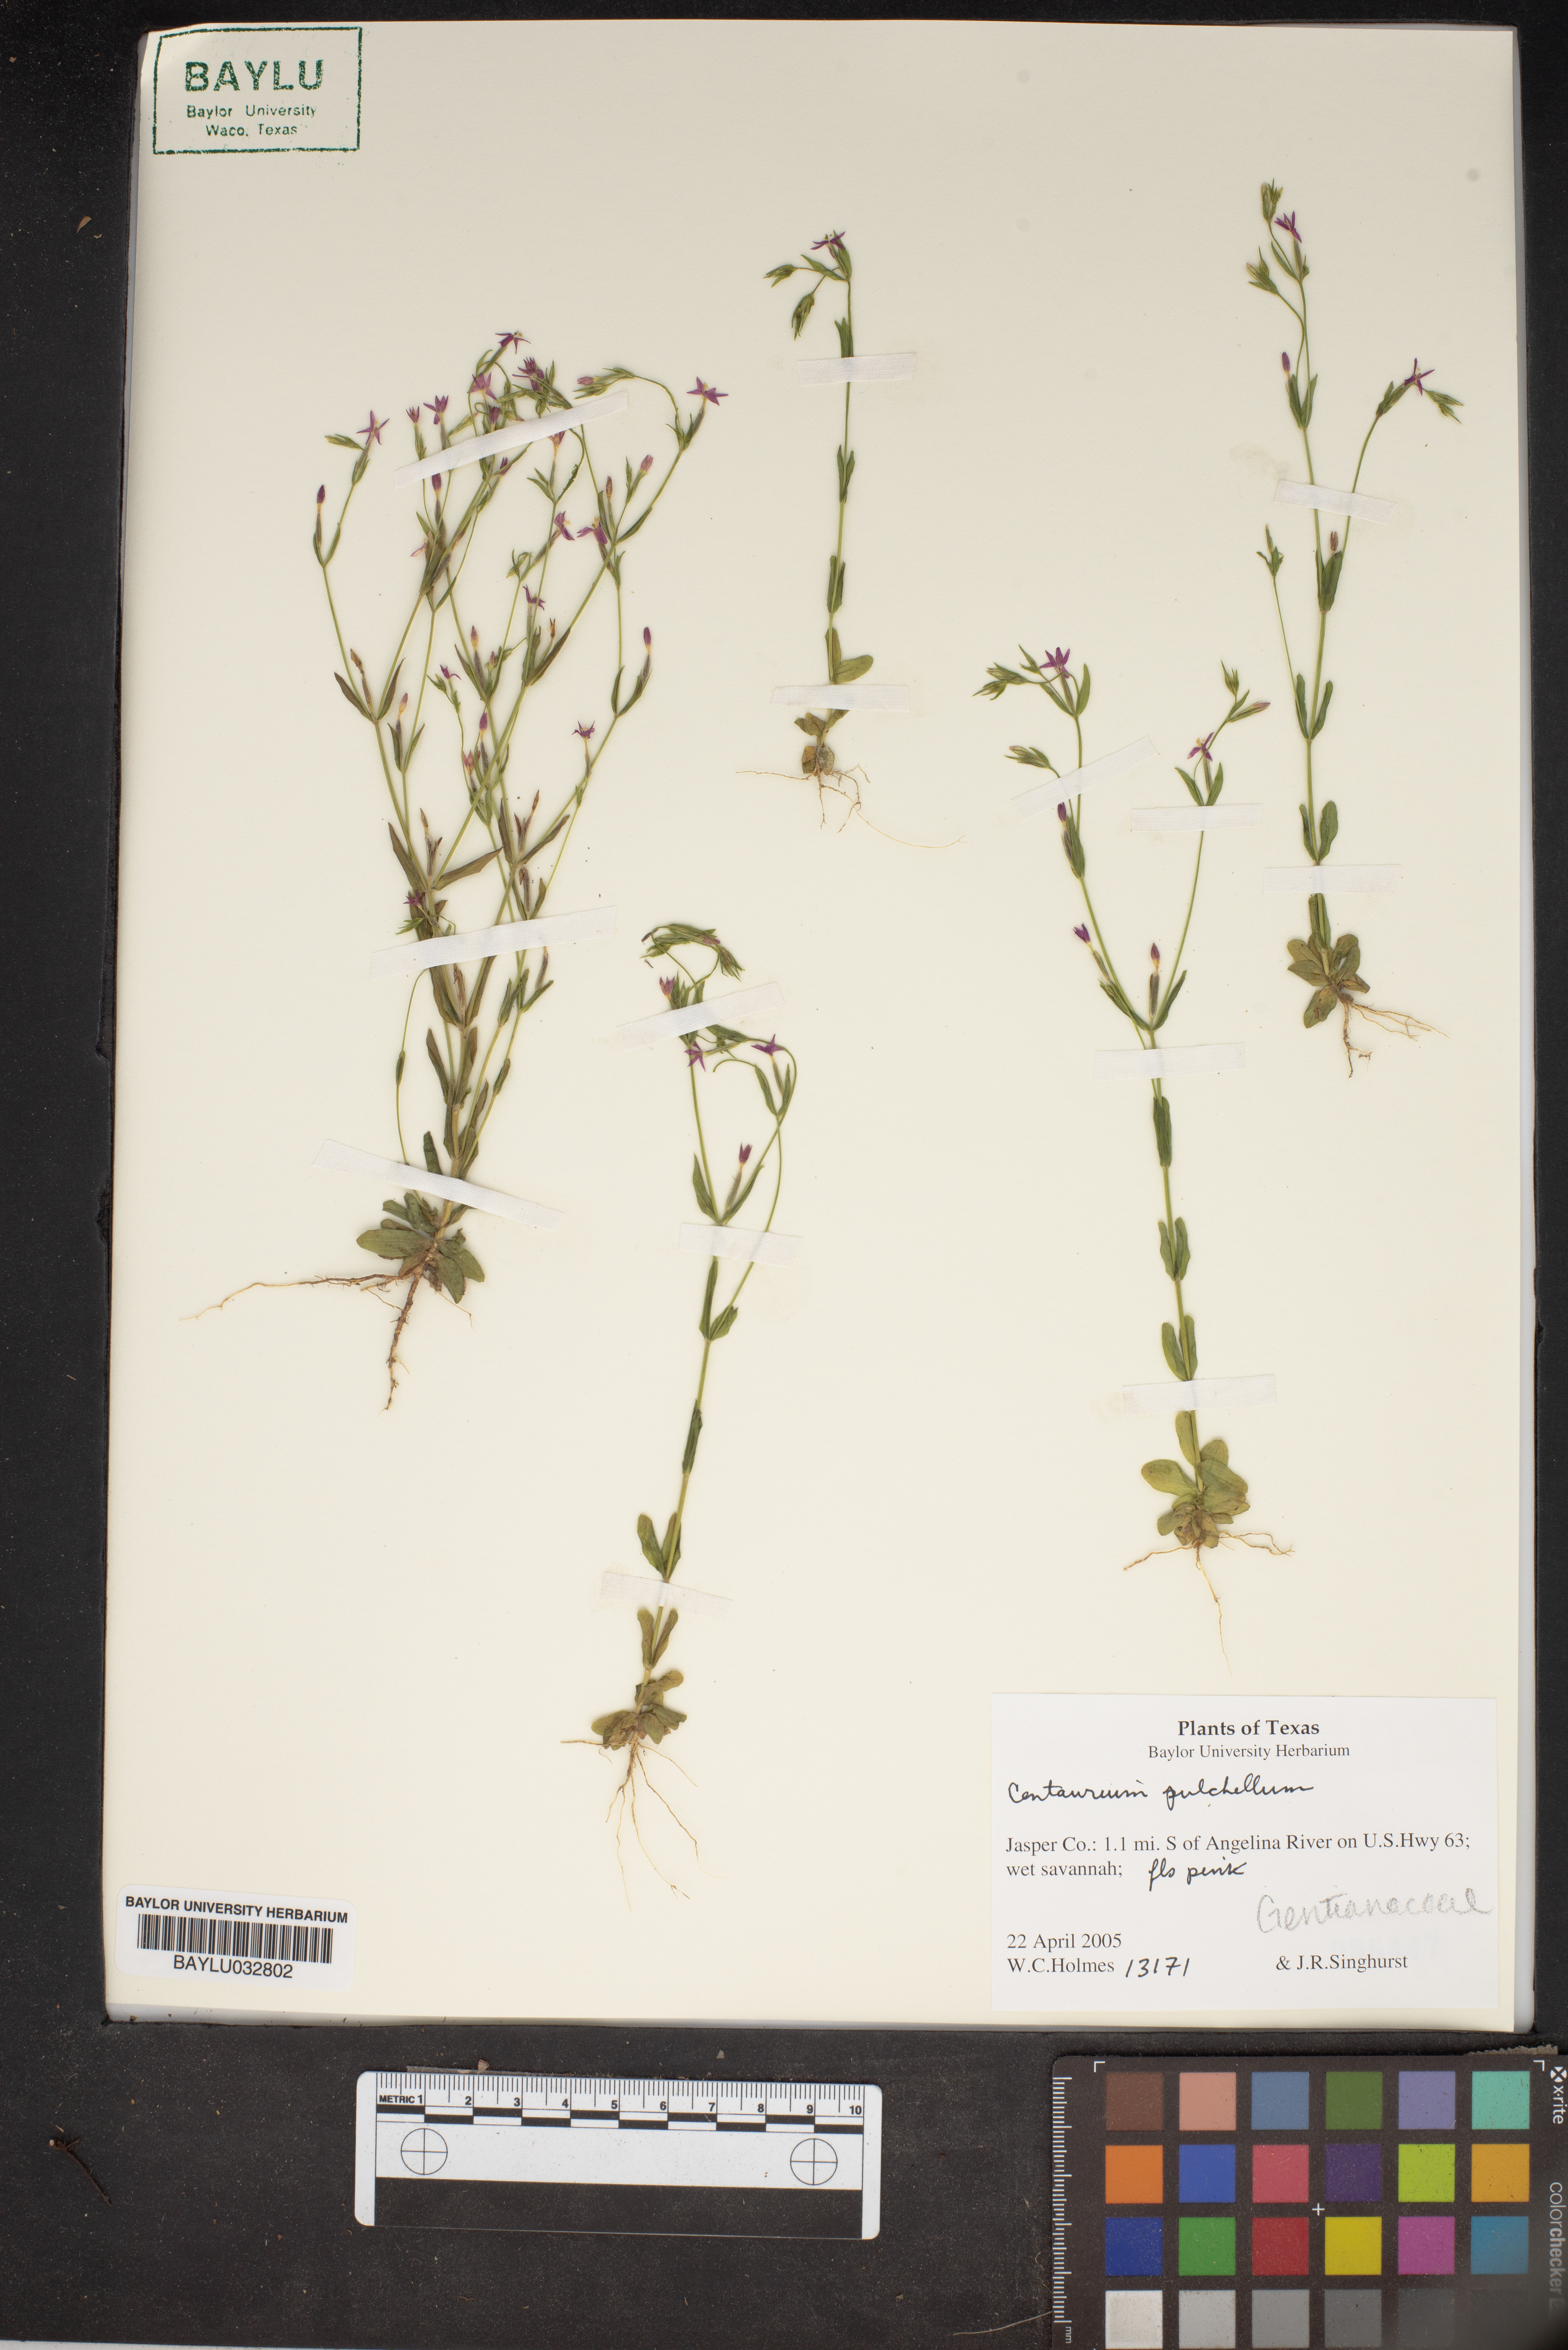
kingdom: Plantae
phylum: Tracheophyta
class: Magnoliopsida
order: Gentianales
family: Gentianaceae
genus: Centaurium
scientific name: Centaurium pulchellum
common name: Lesser centaury
